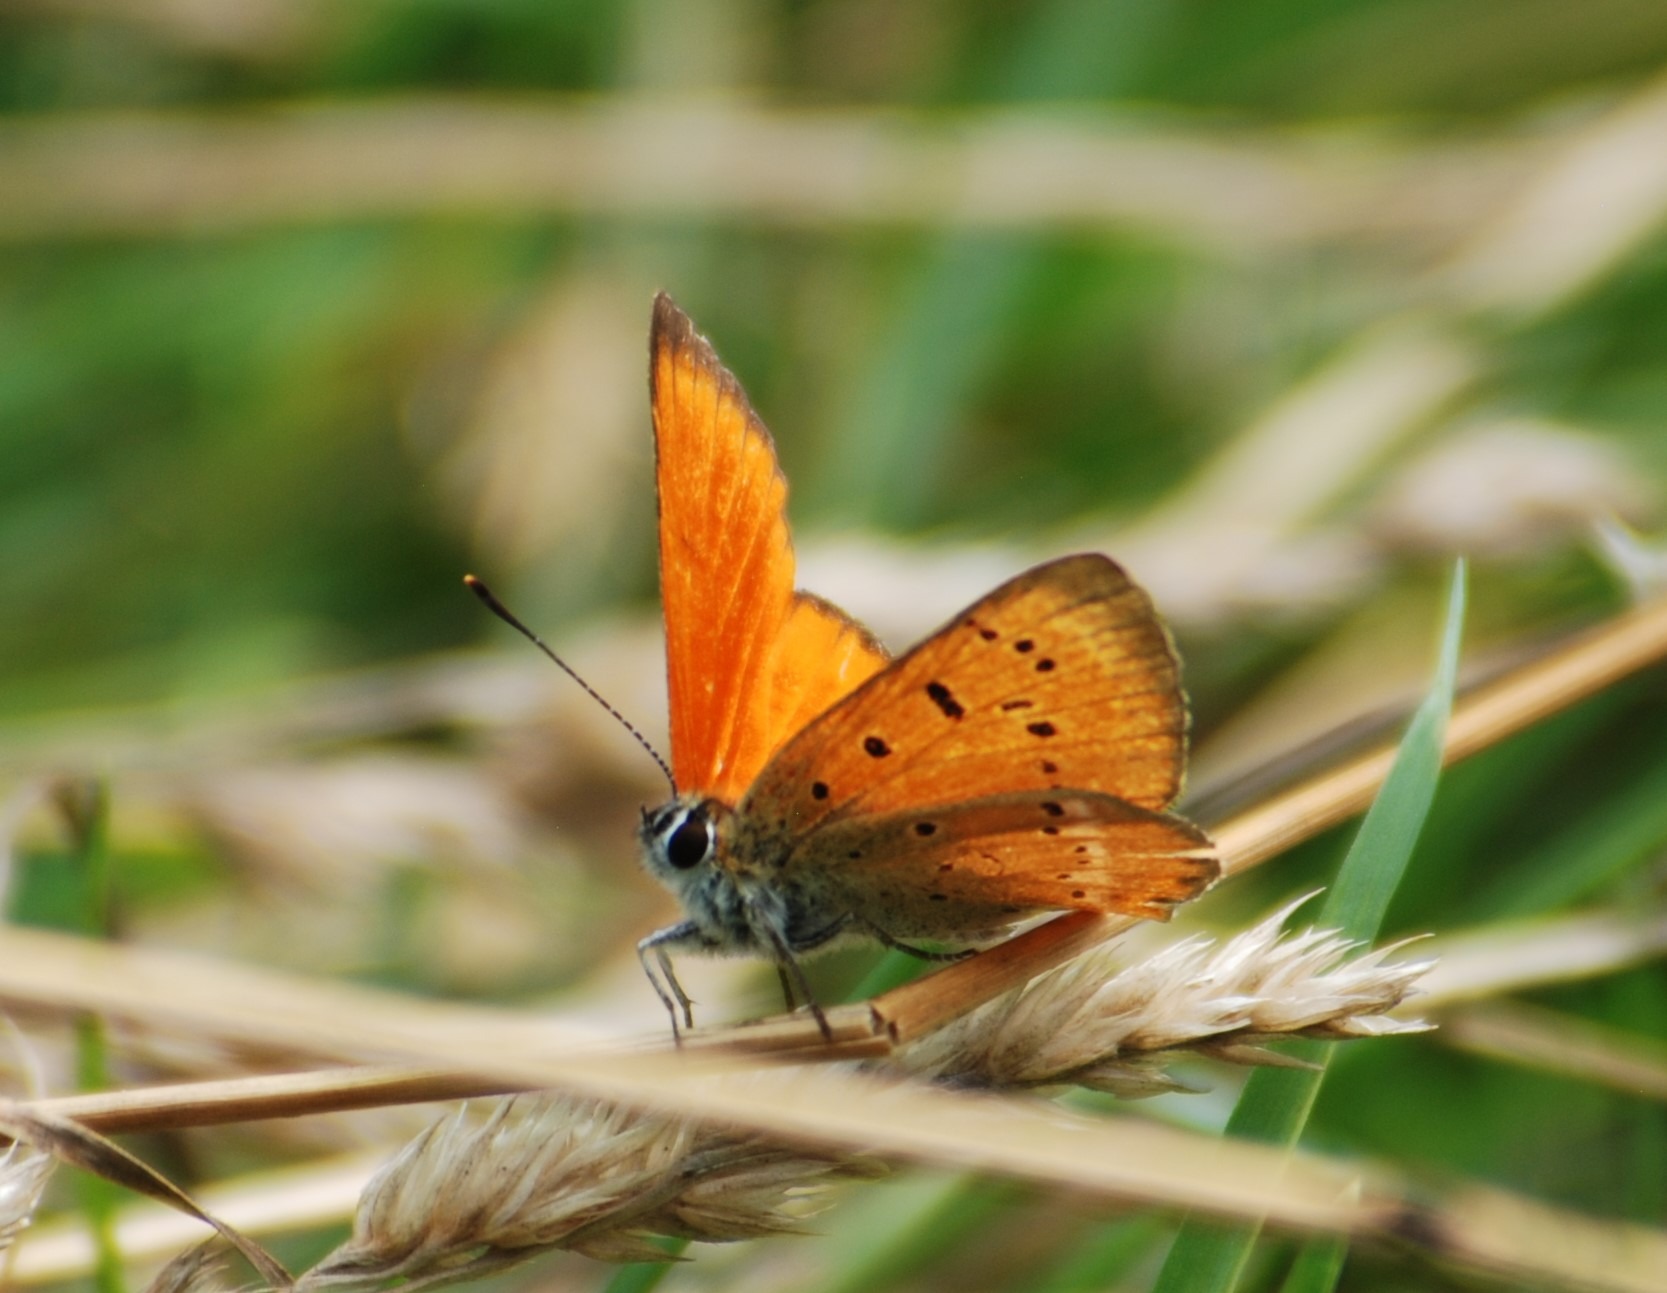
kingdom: Animalia
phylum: Arthropoda
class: Insecta
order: Lepidoptera
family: Lycaenidae
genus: Lycaena
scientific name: Lycaena virgaureae
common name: Dukatsommerfugl
